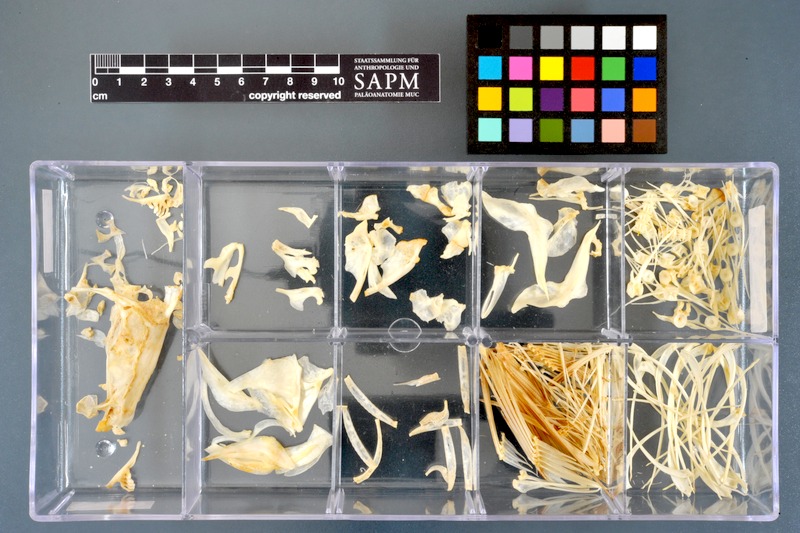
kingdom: Animalia
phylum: Chordata
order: Cypriniformes
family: Cyprinidae
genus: Abramis
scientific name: Abramis brama
